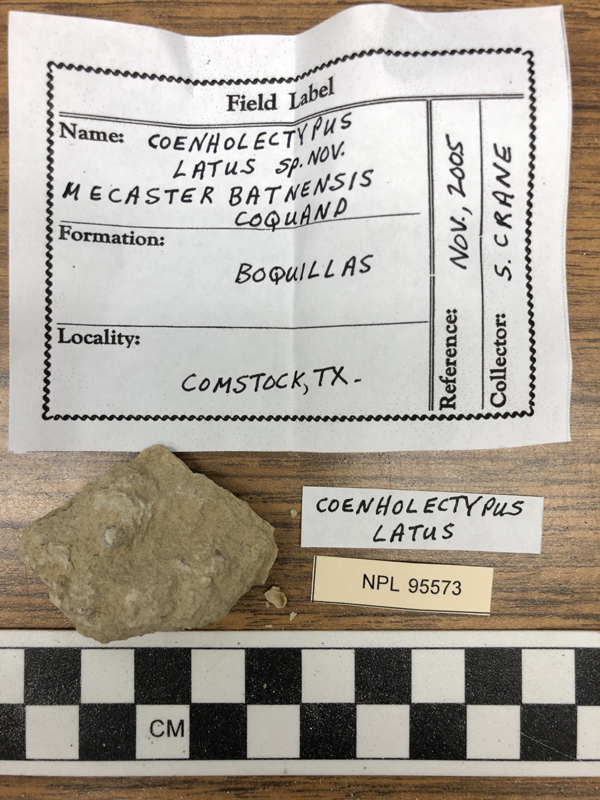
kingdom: Animalia
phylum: Echinodermata
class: Echinoidea
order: Holectypoida
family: Coenholectypidae
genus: Coenholectypus
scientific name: Coenholectypus latus
